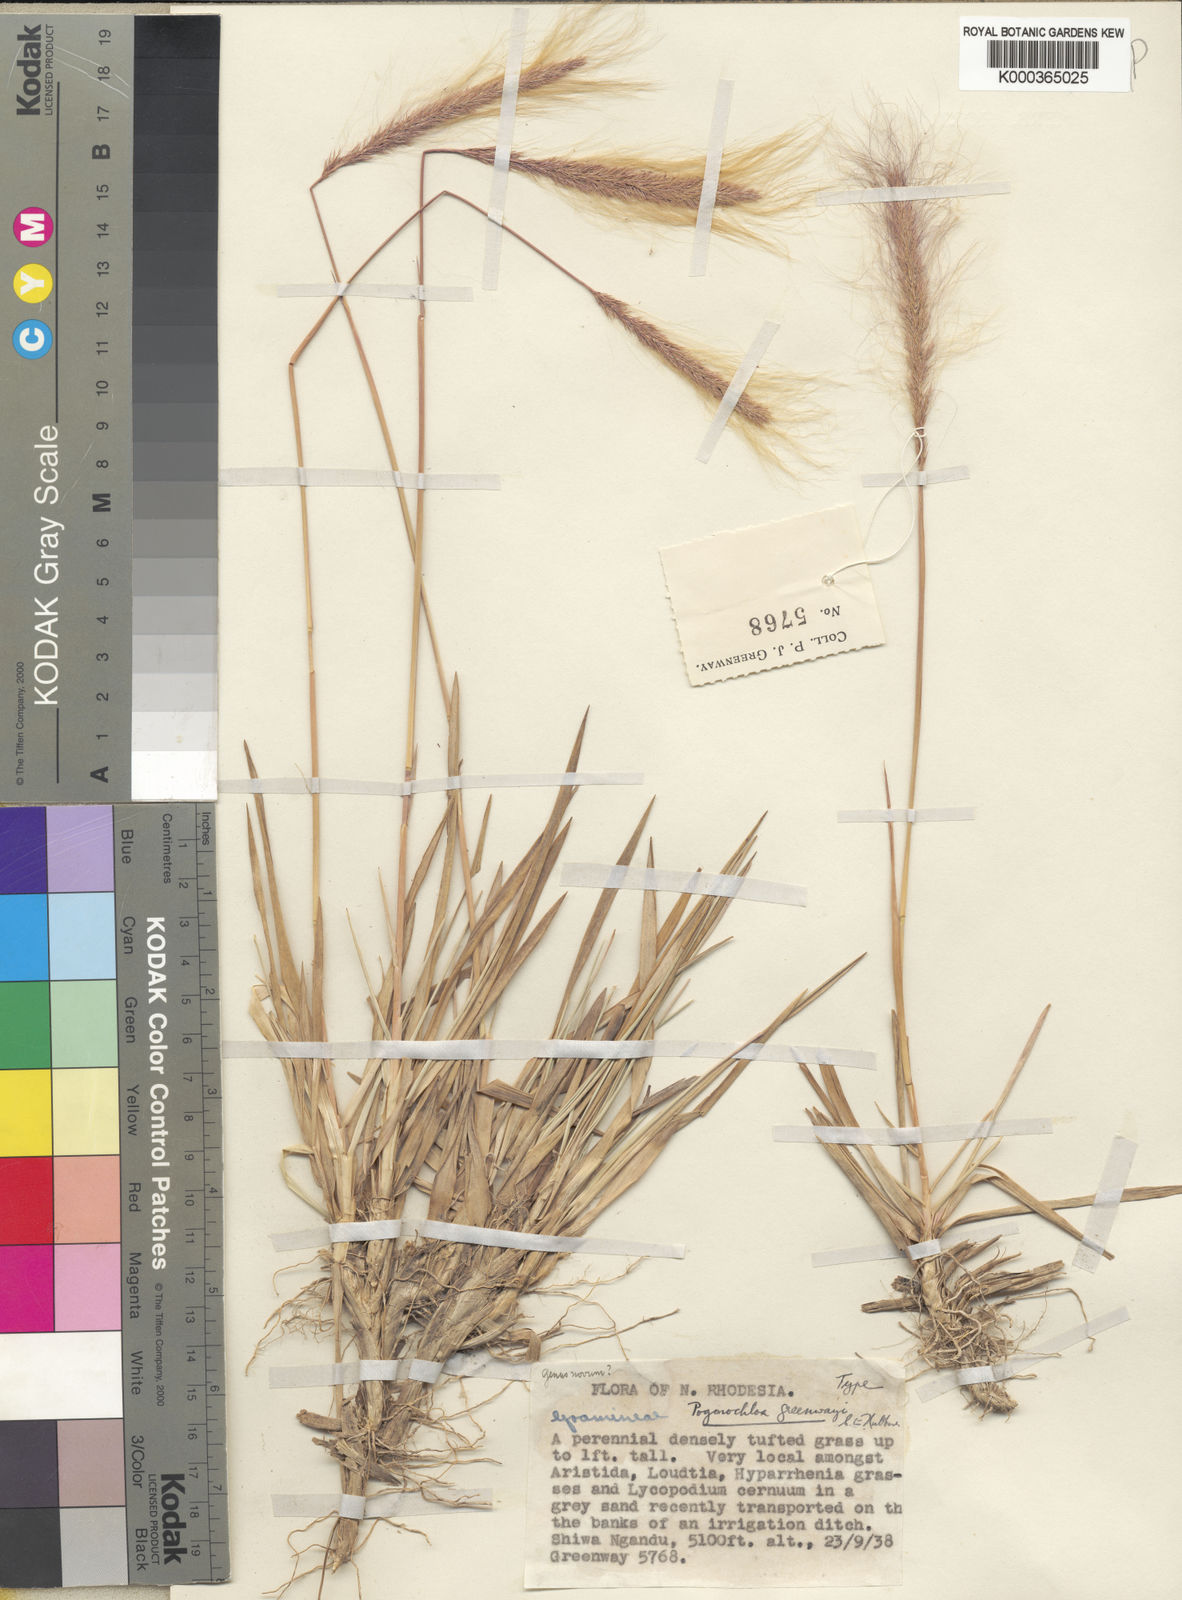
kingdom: Plantae
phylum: Tracheophyta
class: Liliopsida
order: Poales
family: Poaceae
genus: Pogonochloa
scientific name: Pogonochloa greenwayi
